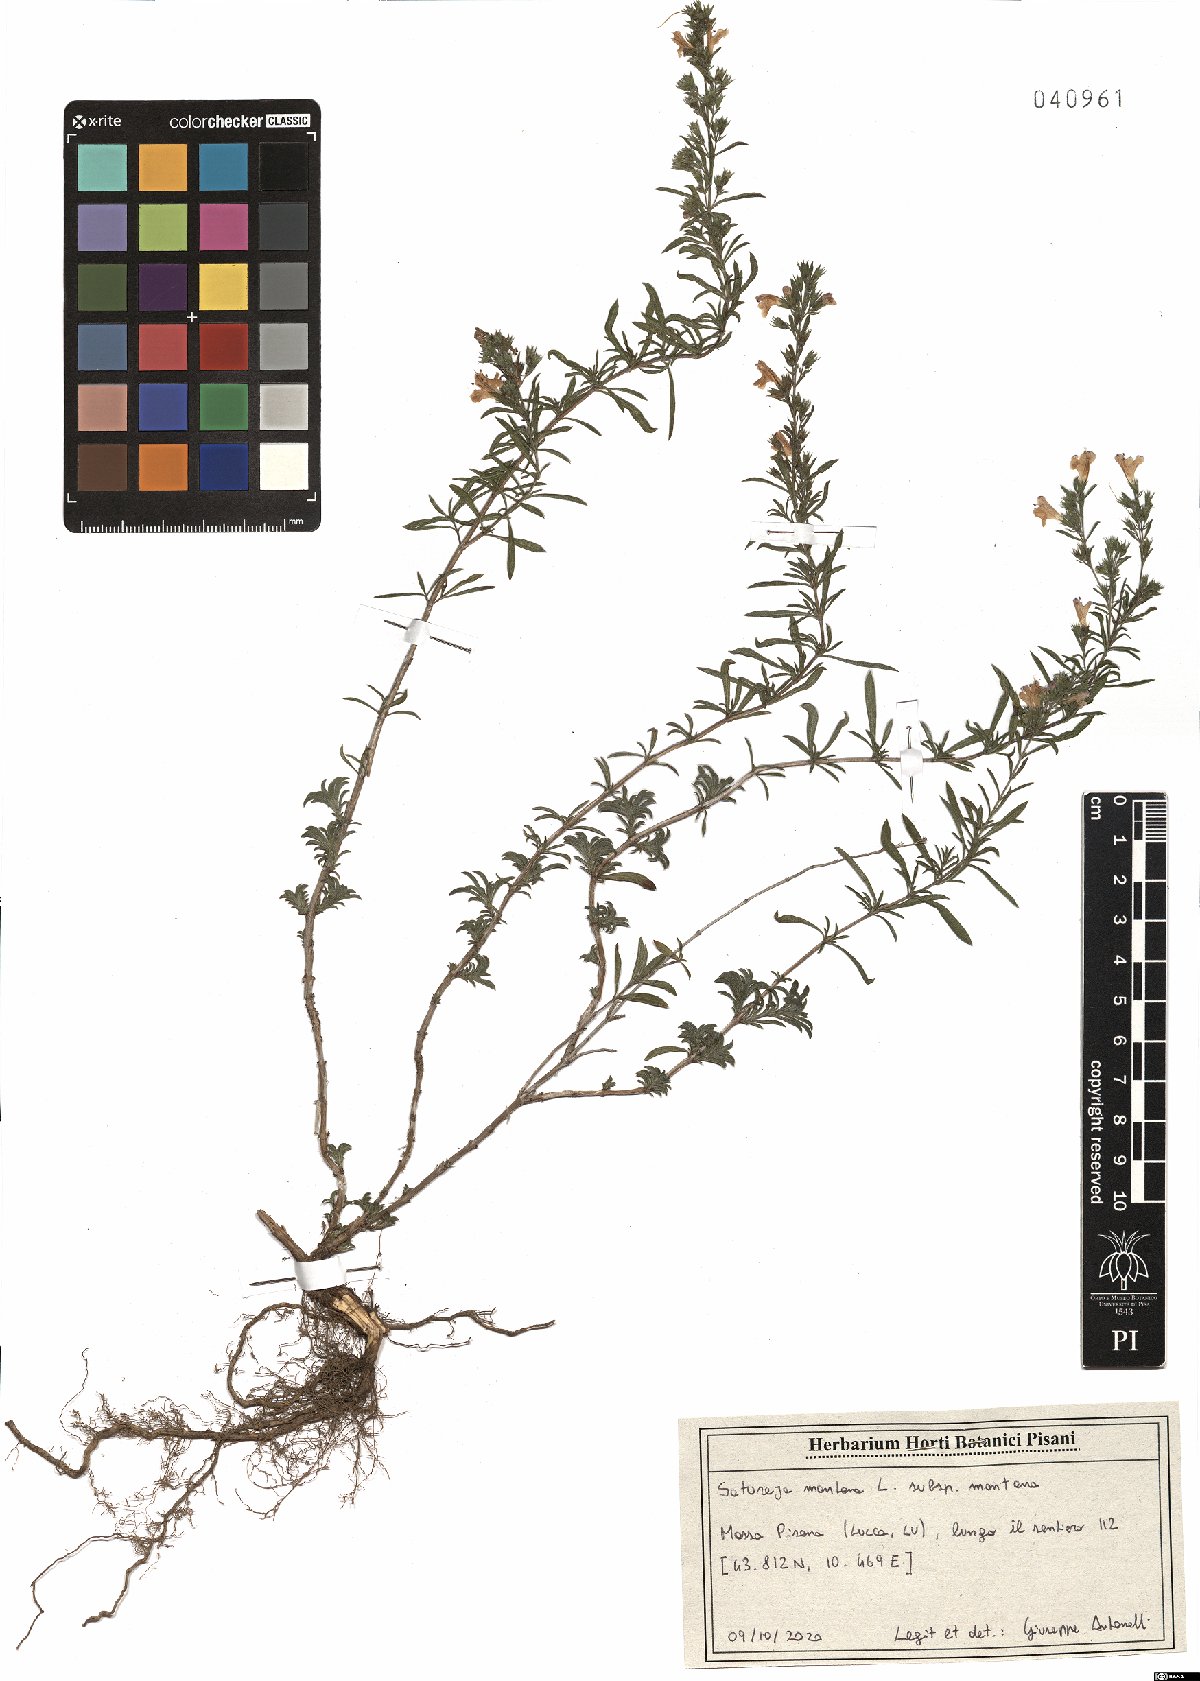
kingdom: Plantae
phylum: Tracheophyta
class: Magnoliopsida
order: Lamiales
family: Lamiaceae
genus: Satureja
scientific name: Satureja montana
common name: Winter savory
